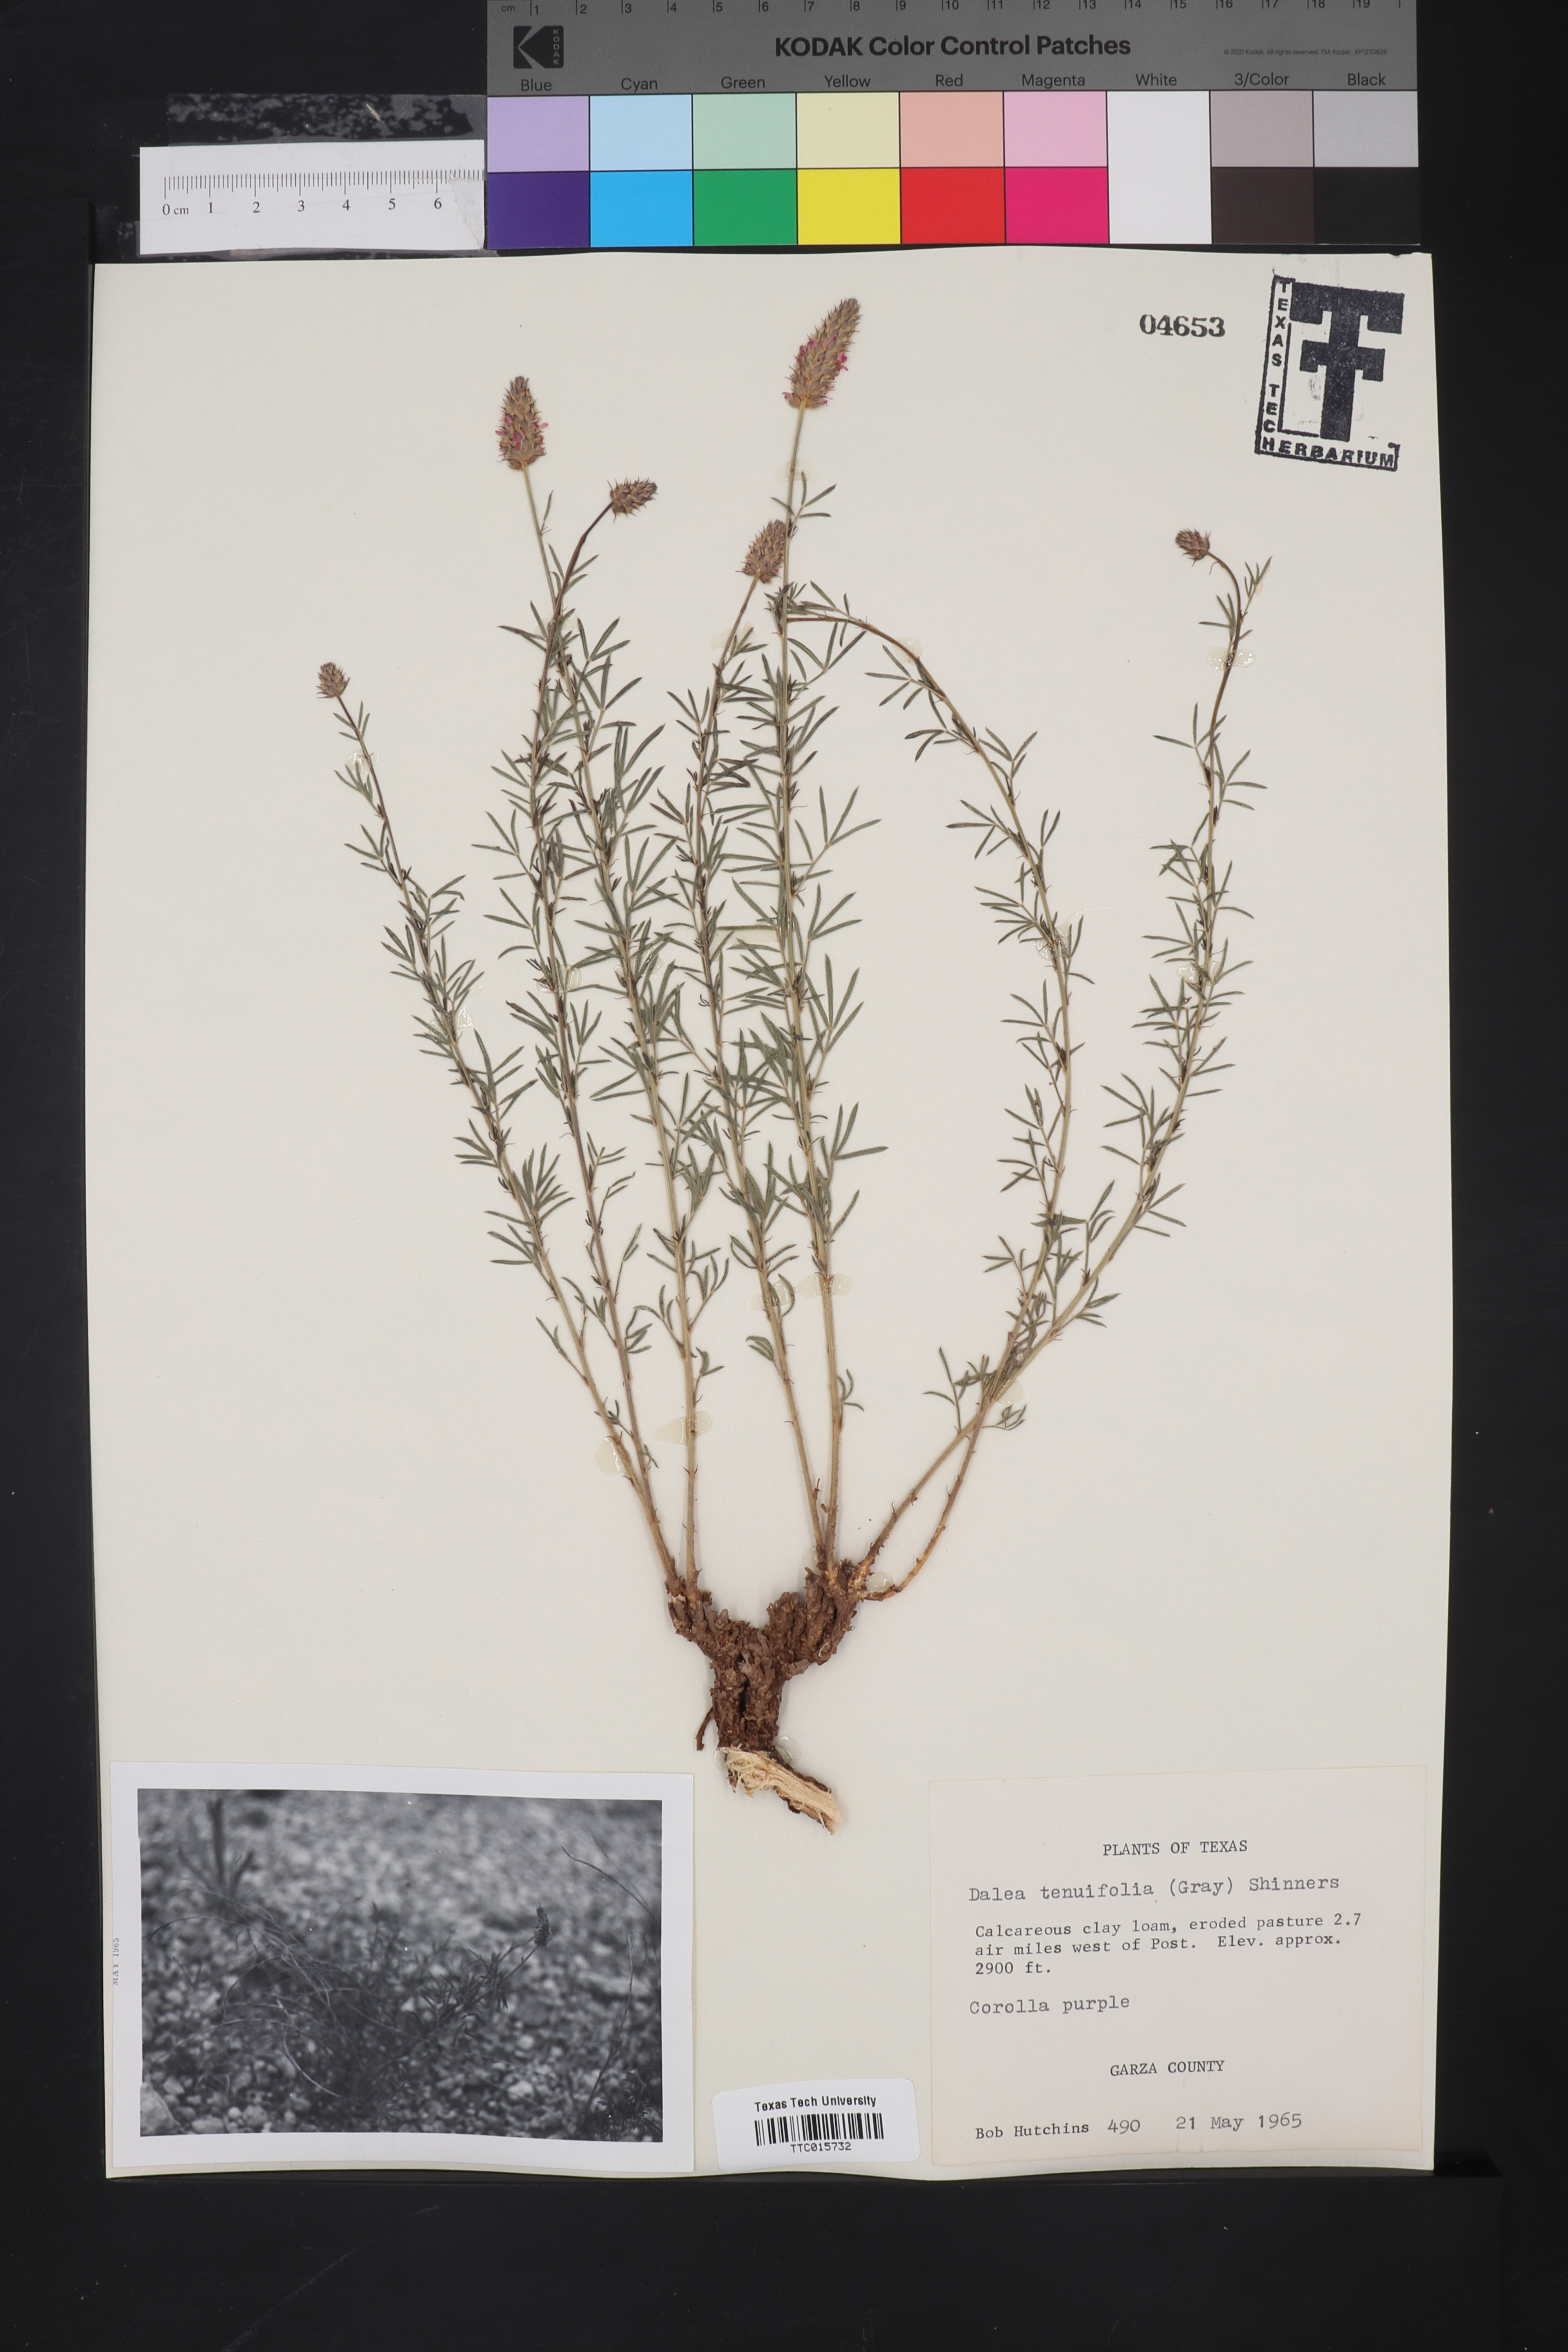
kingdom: Plantae
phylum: Tracheophyta
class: Magnoliopsida
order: Fabales
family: Fabaceae
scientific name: Fabaceae
